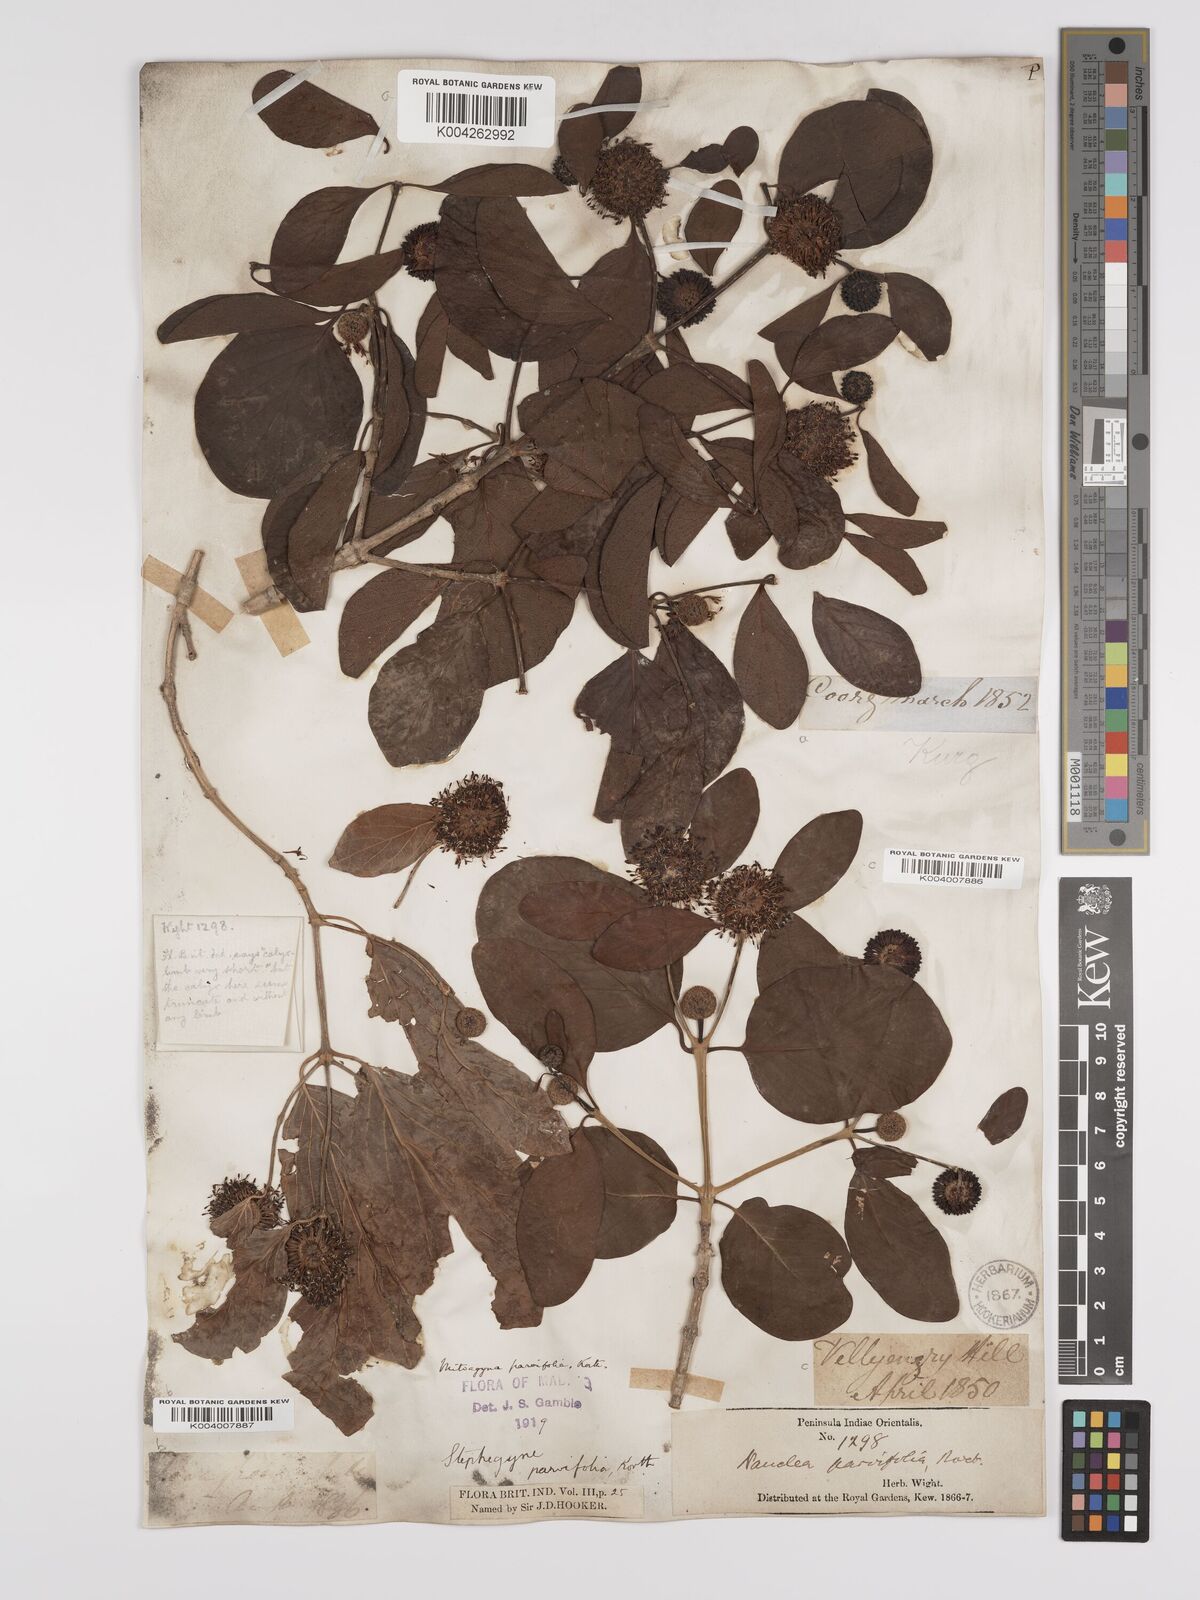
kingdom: Plantae
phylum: Tracheophyta
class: Magnoliopsida
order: Gentianales
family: Rubiaceae
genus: Mitragyna
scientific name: Mitragyna parvifolia
